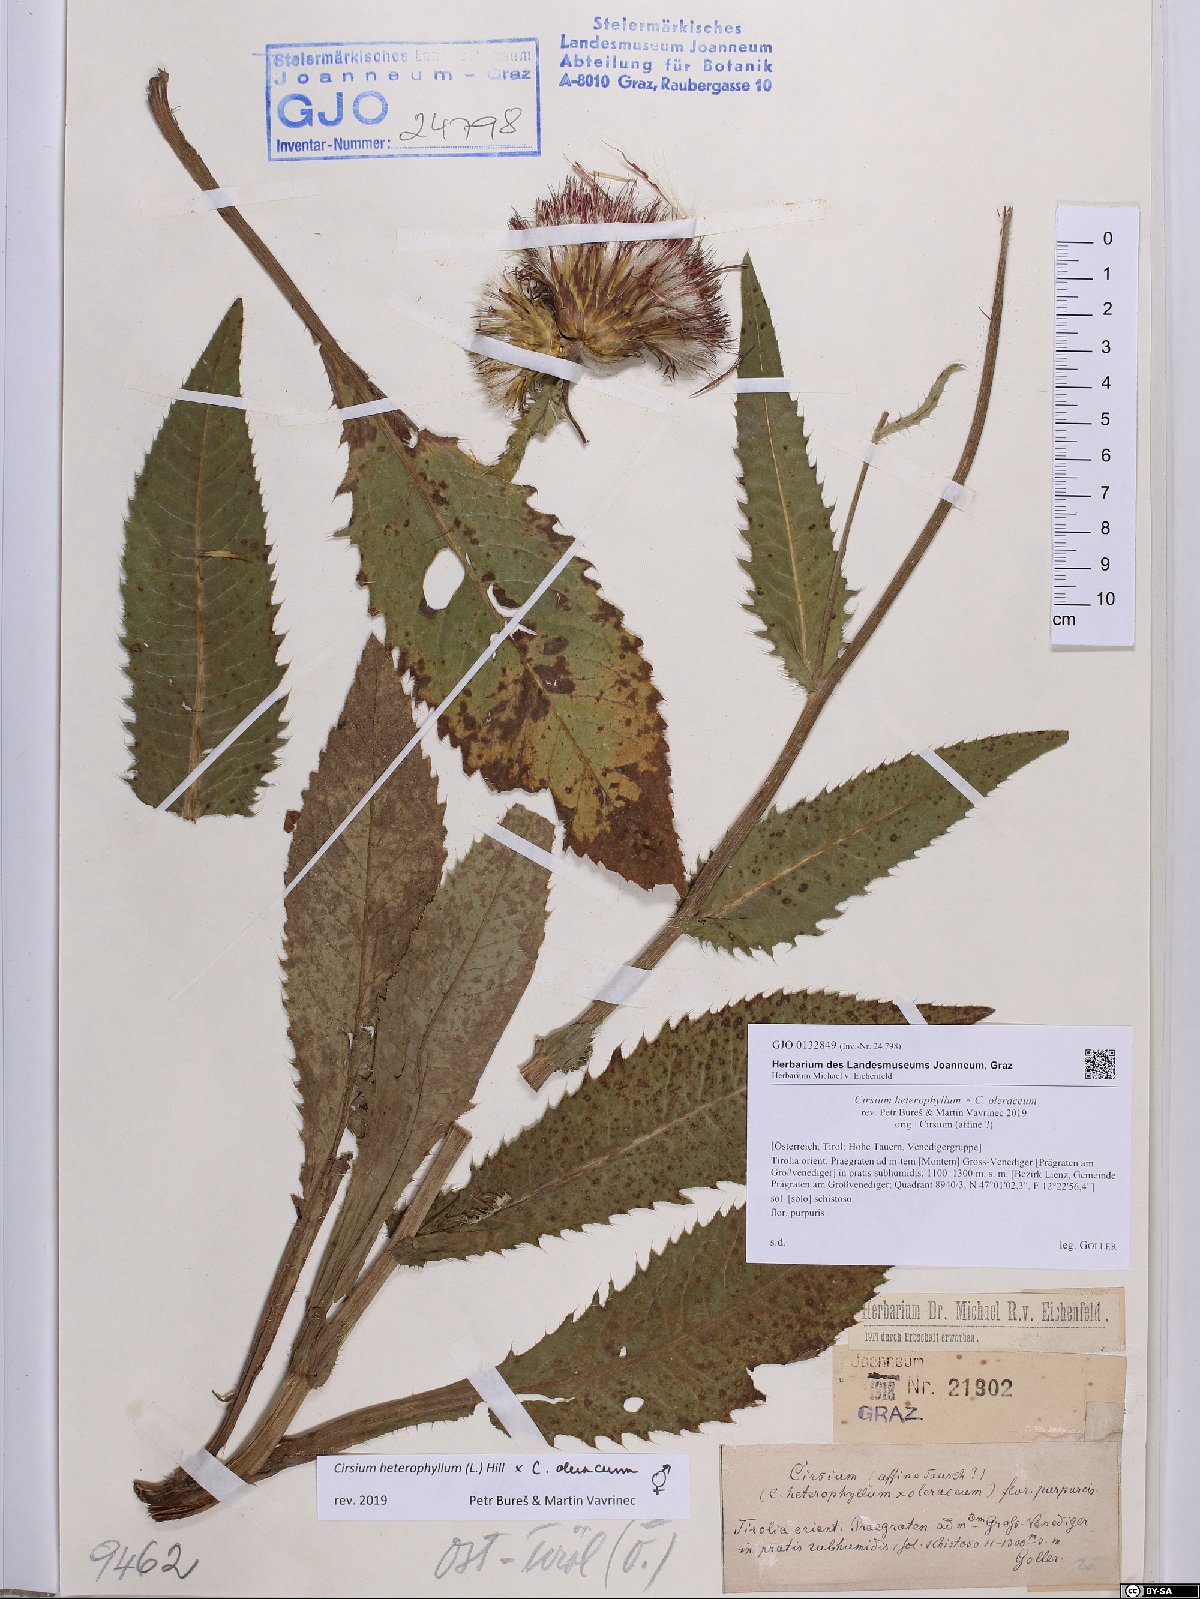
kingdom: Plantae
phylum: Tracheophyta
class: Magnoliopsida
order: Asterales
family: Asteraceae
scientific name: Asteraceae
